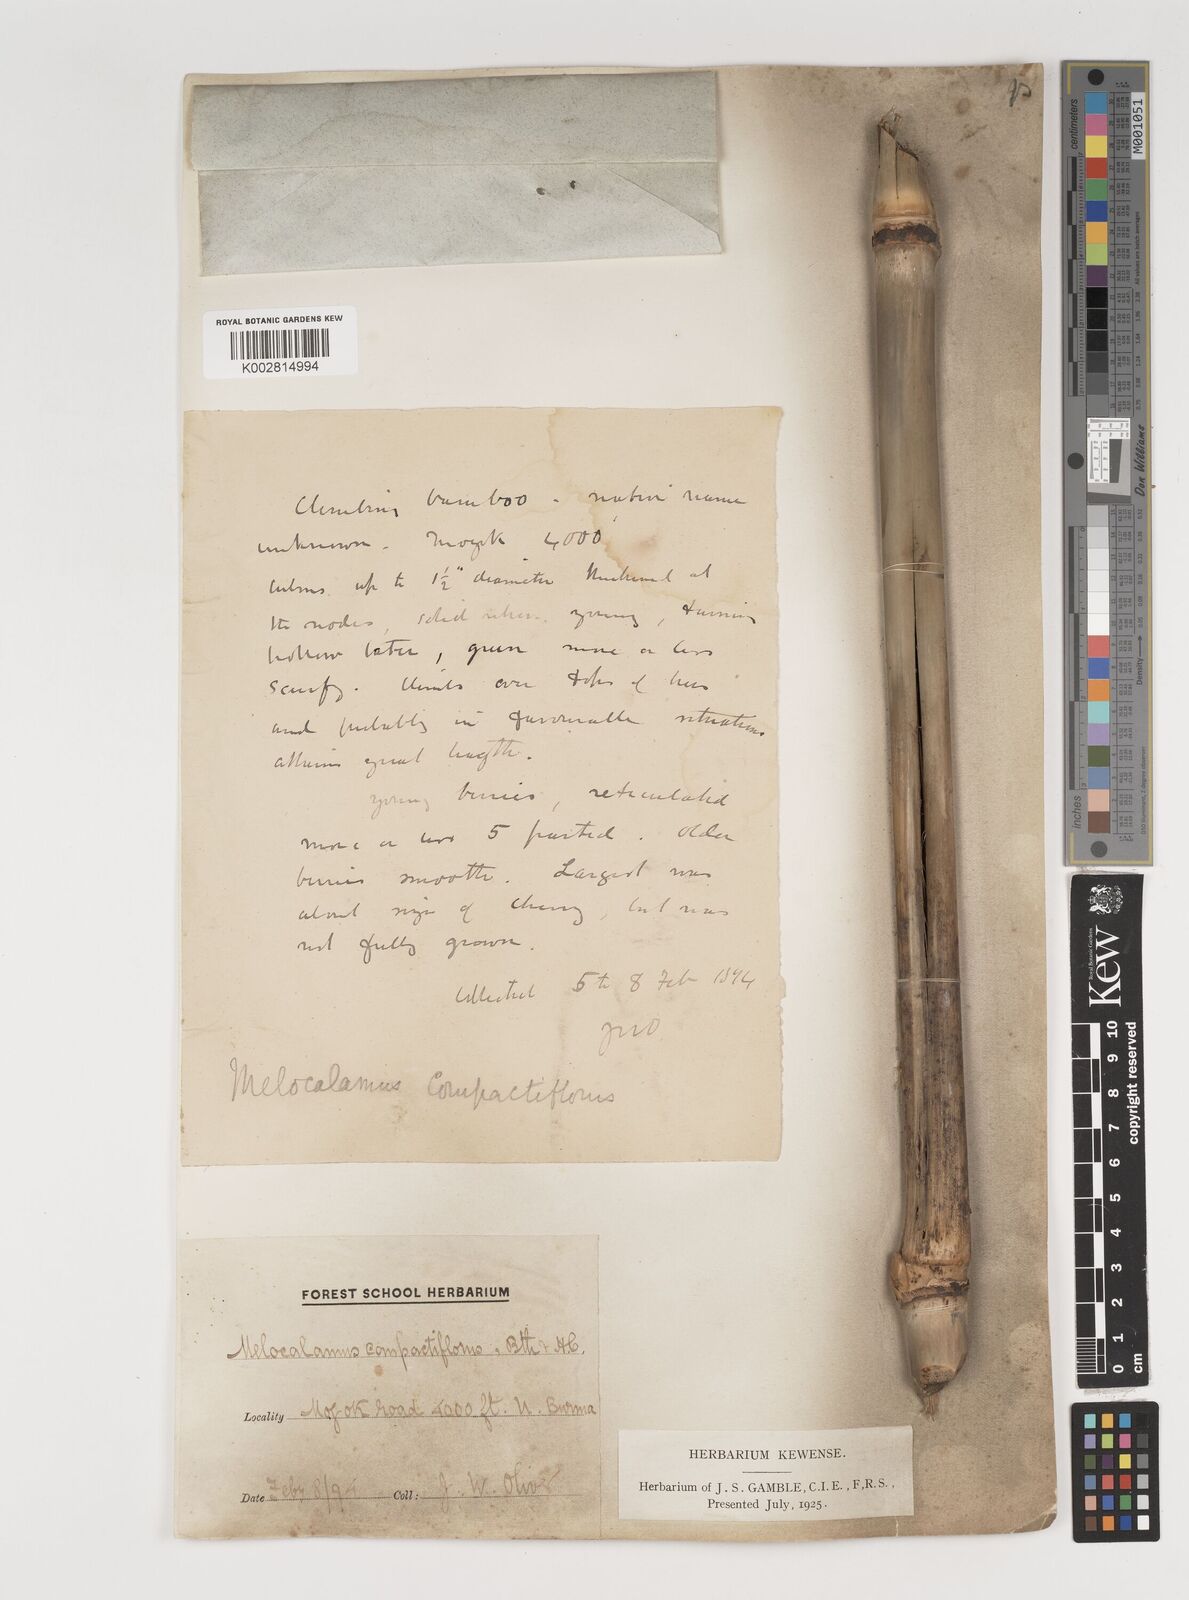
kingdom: Plantae
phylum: Tracheophyta
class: Liliopsida
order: Poales
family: Poaceae
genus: Melocalamus
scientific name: Melocalamus compactiflorus
